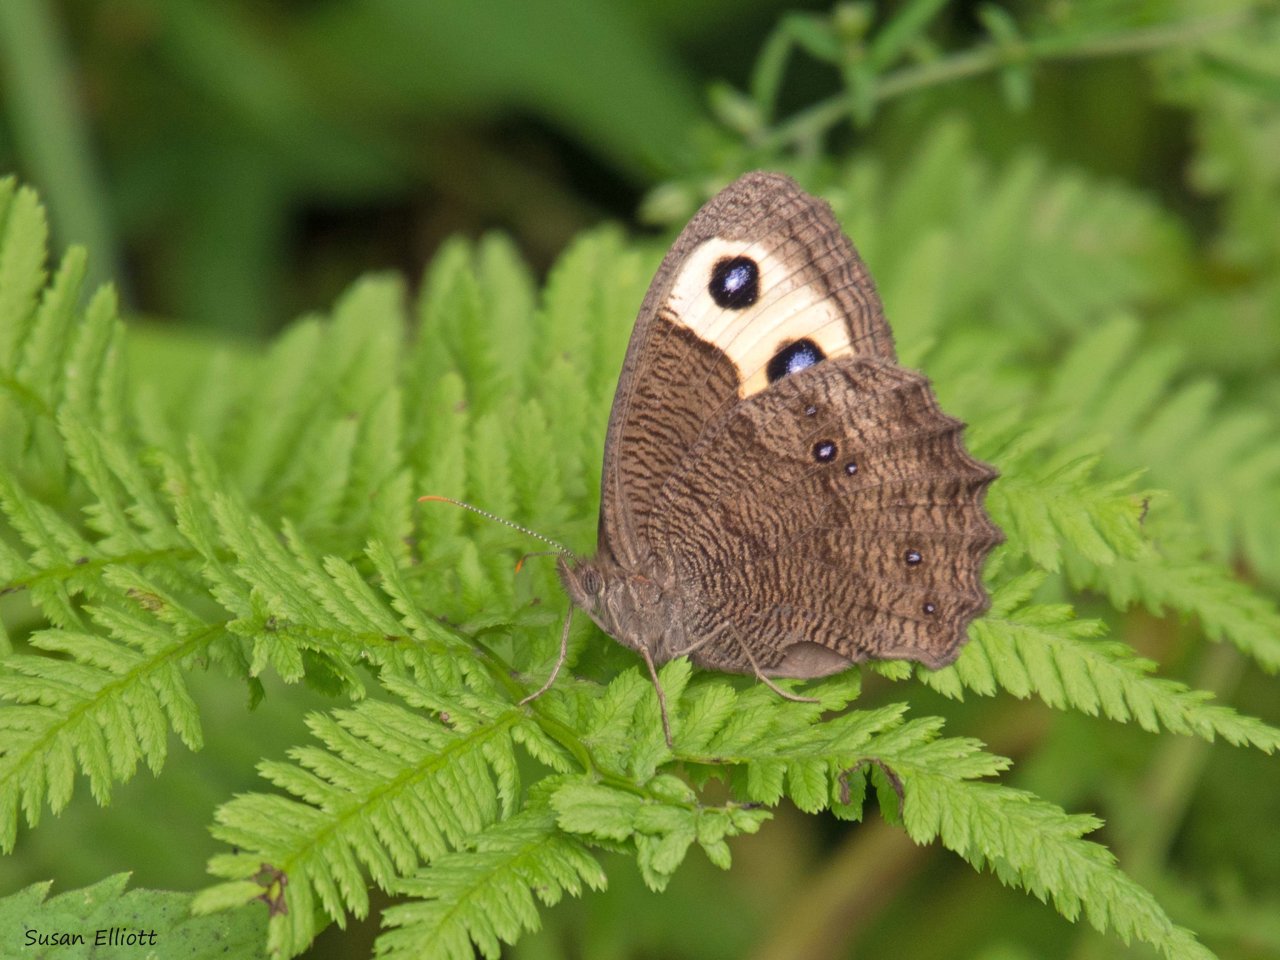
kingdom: Animalia
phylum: Arthropoda
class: Insecta
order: Lepidoptera
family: Nymphalidae
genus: Cercyonis
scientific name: Cercyonis pegala
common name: Common Wood-Nymph
